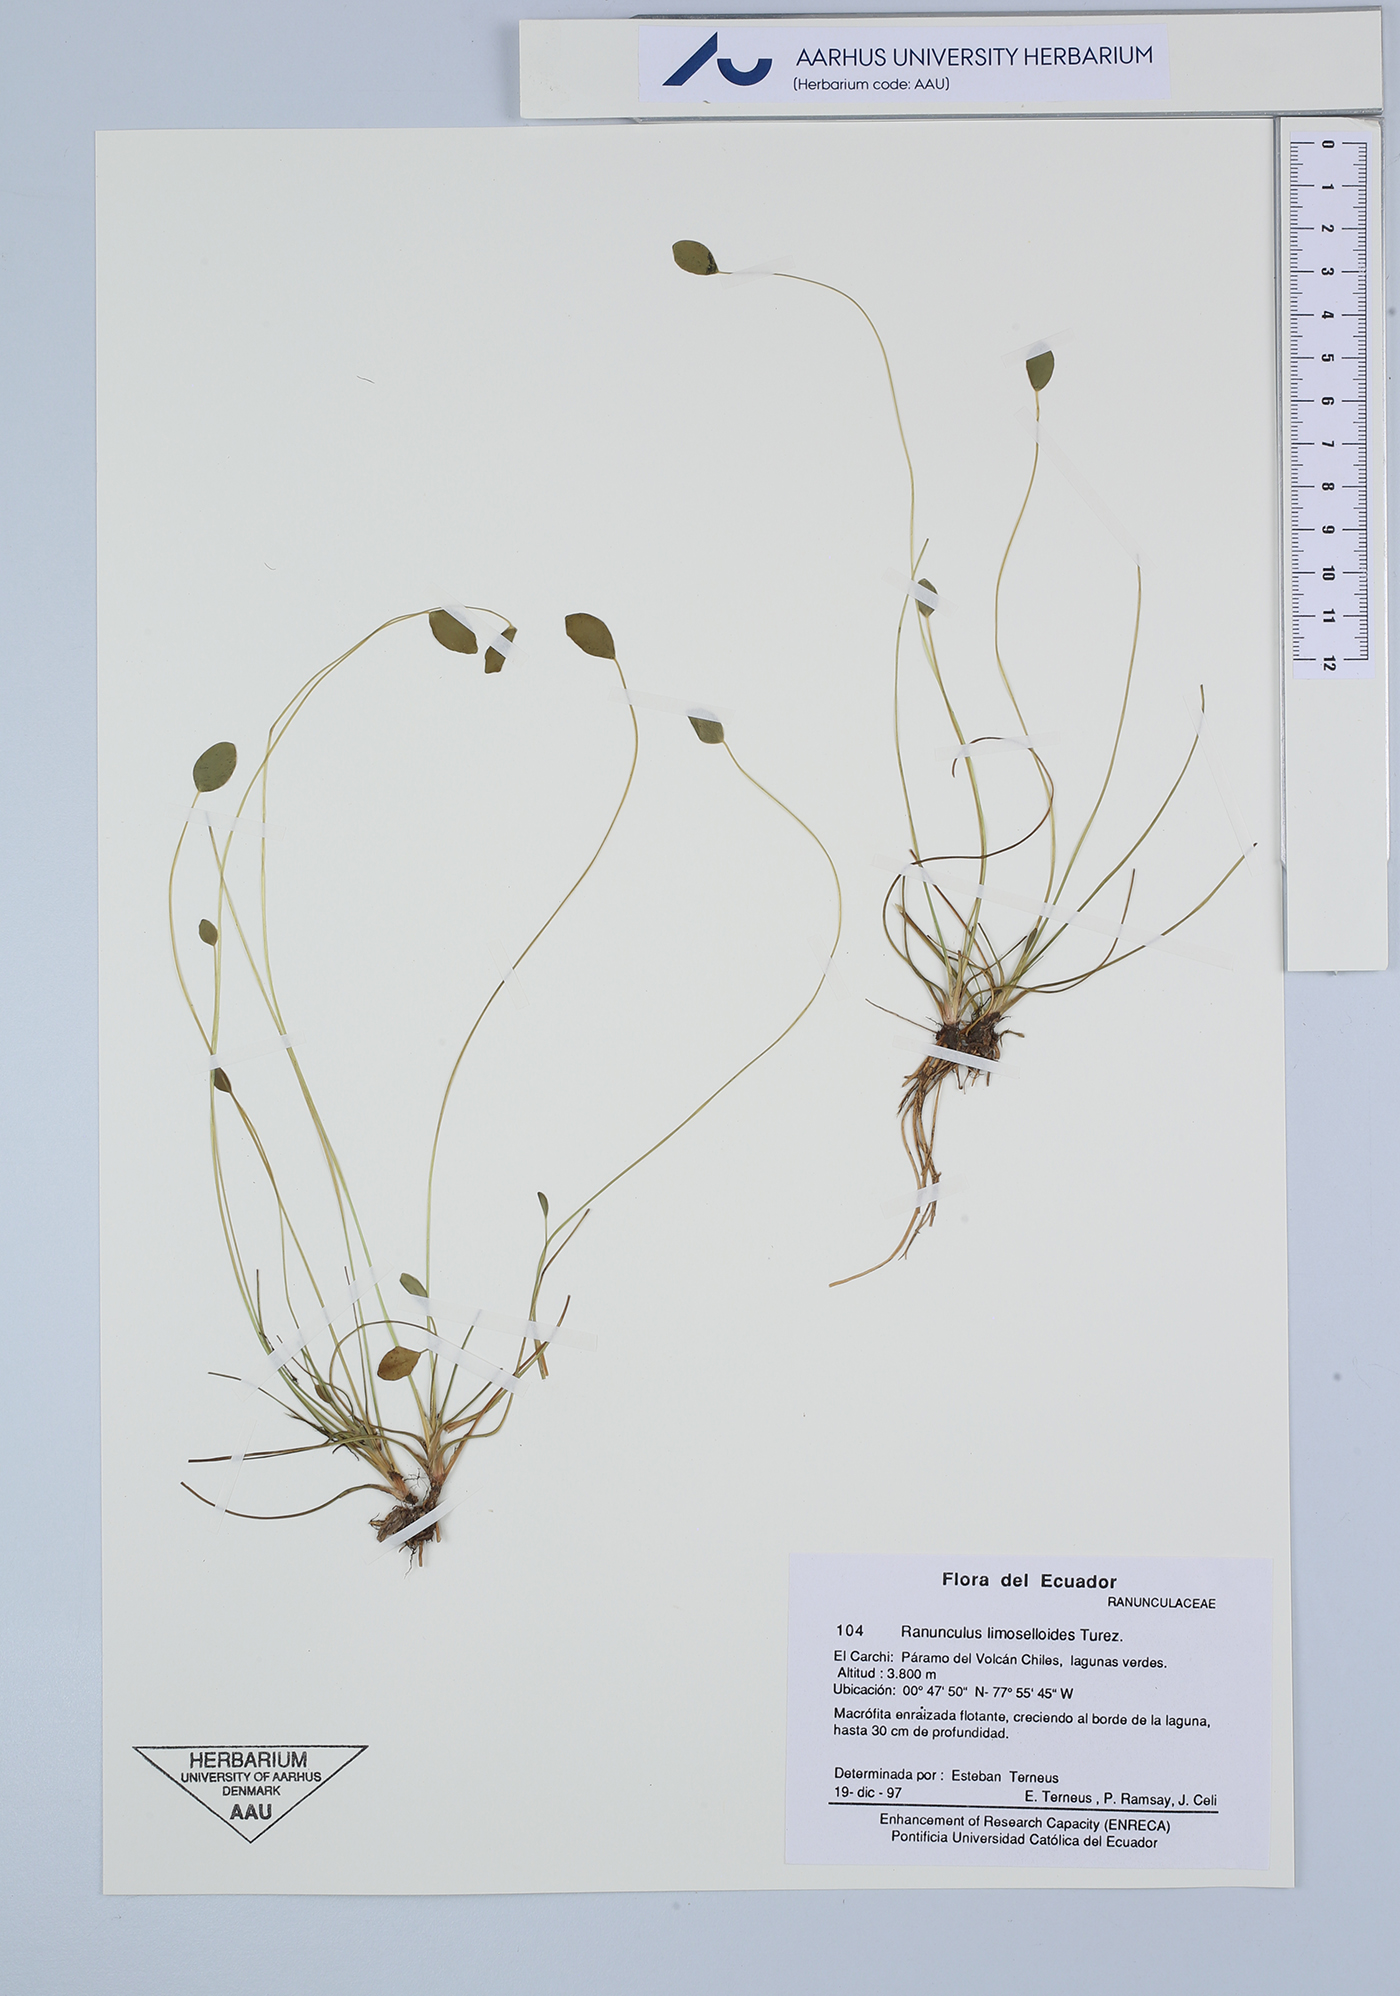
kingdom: Plantae
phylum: Tracheophyta
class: Magnoliopsida
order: Ranunculales
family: Ranunculaceae
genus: Ranunculus
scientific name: Ranunculus limoselloides
